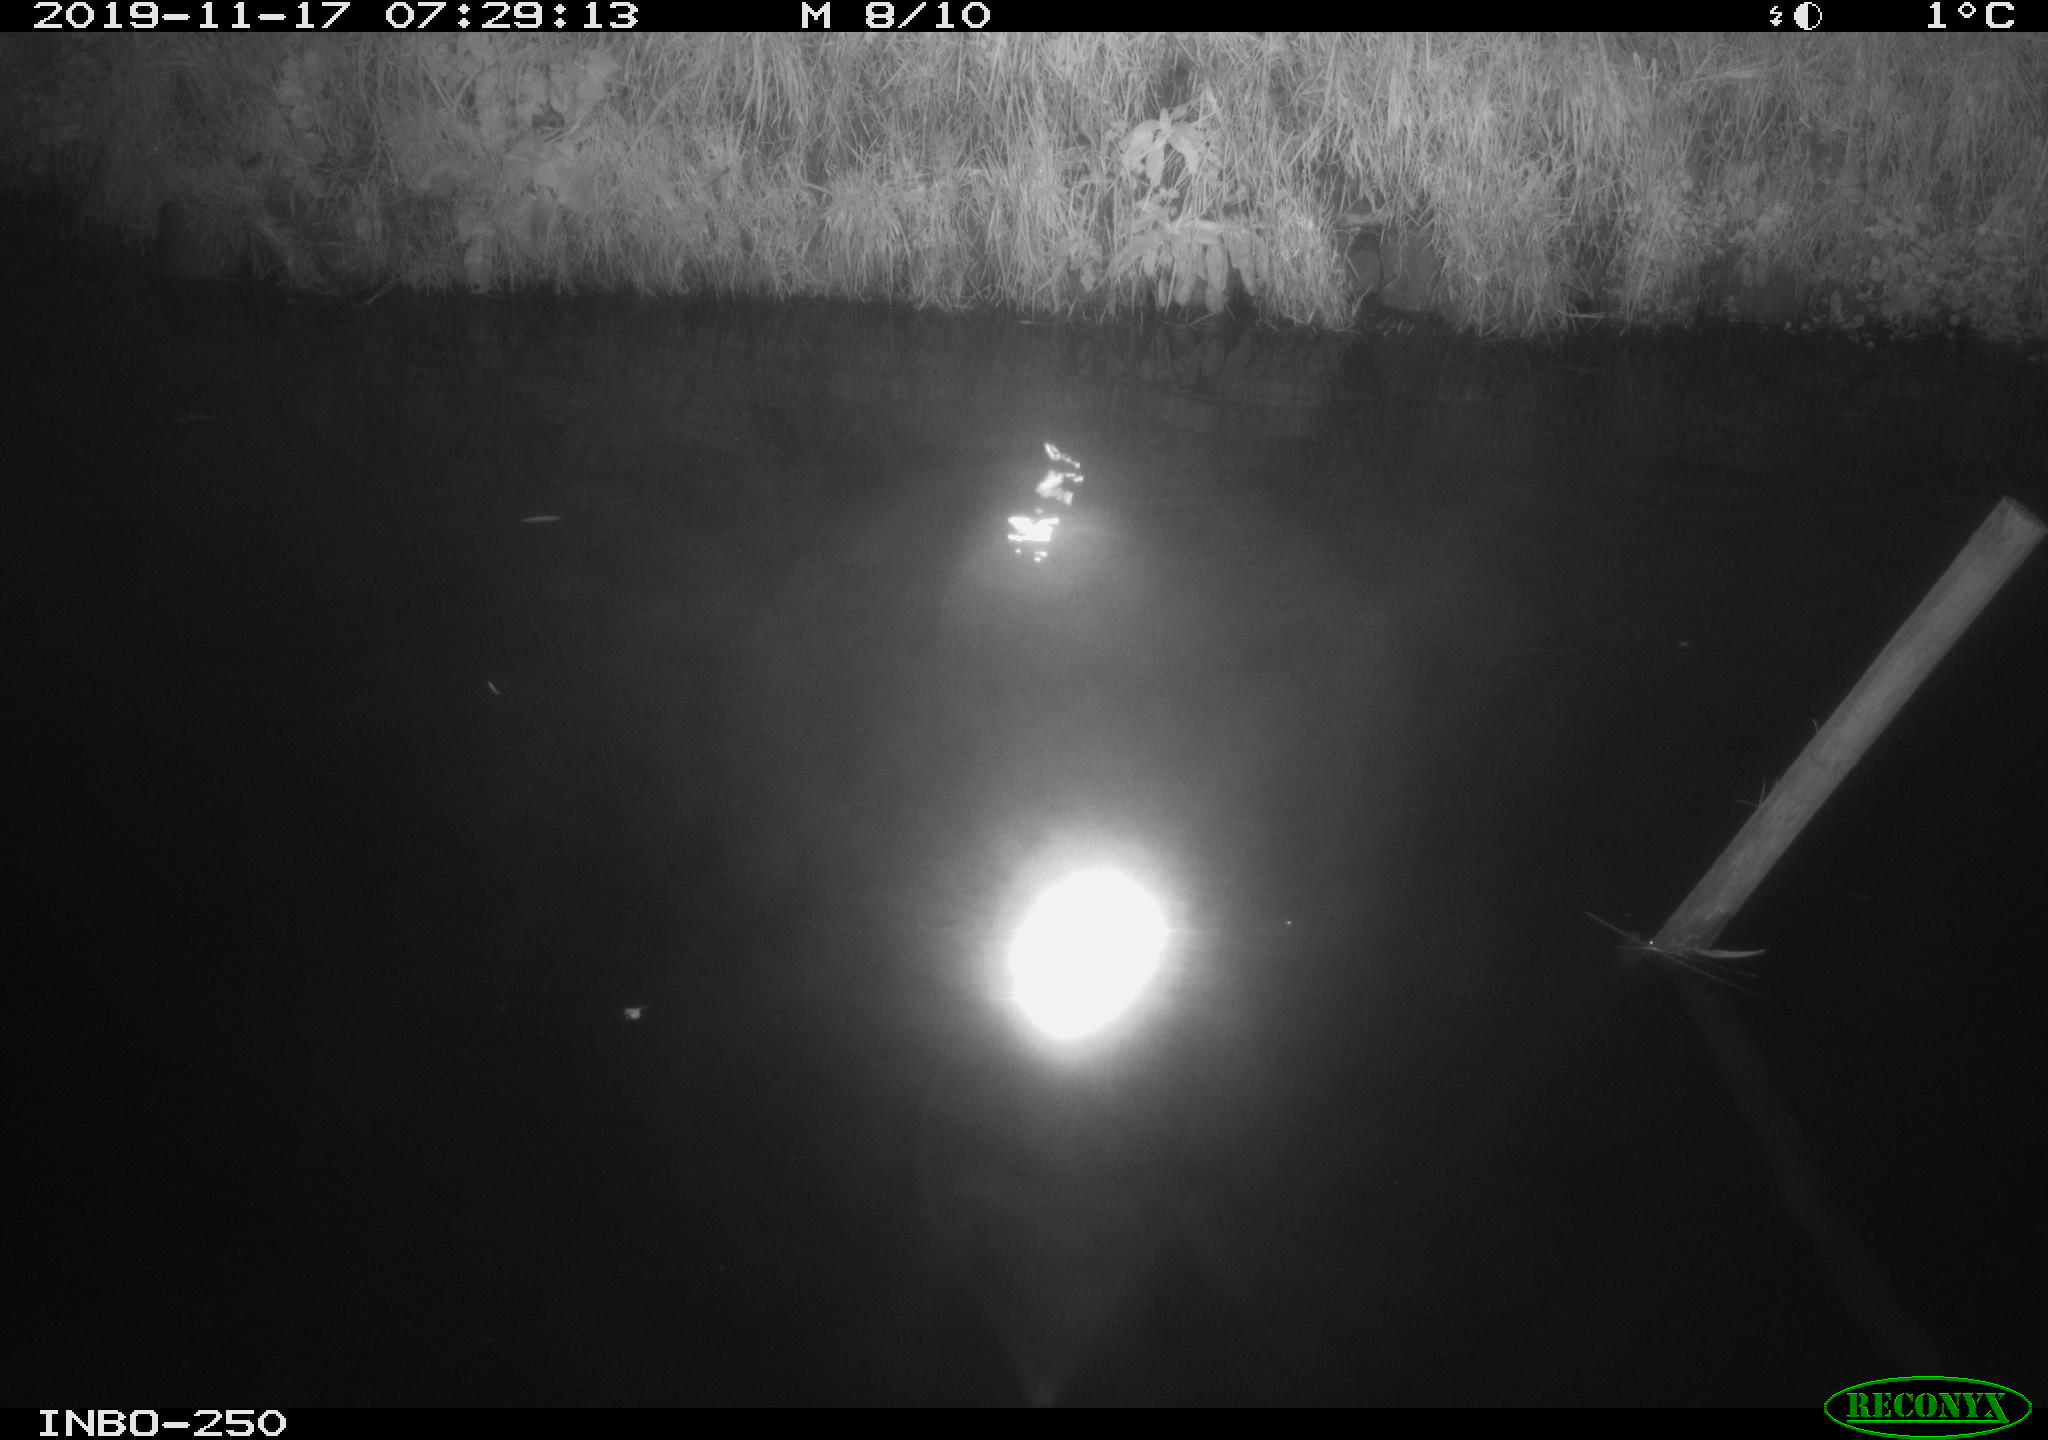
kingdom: Animalia
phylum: Chordata
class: Aves
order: Anseriformes
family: Anatidae
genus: Anas
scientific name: Anas platyrhynchos
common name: Mallard
